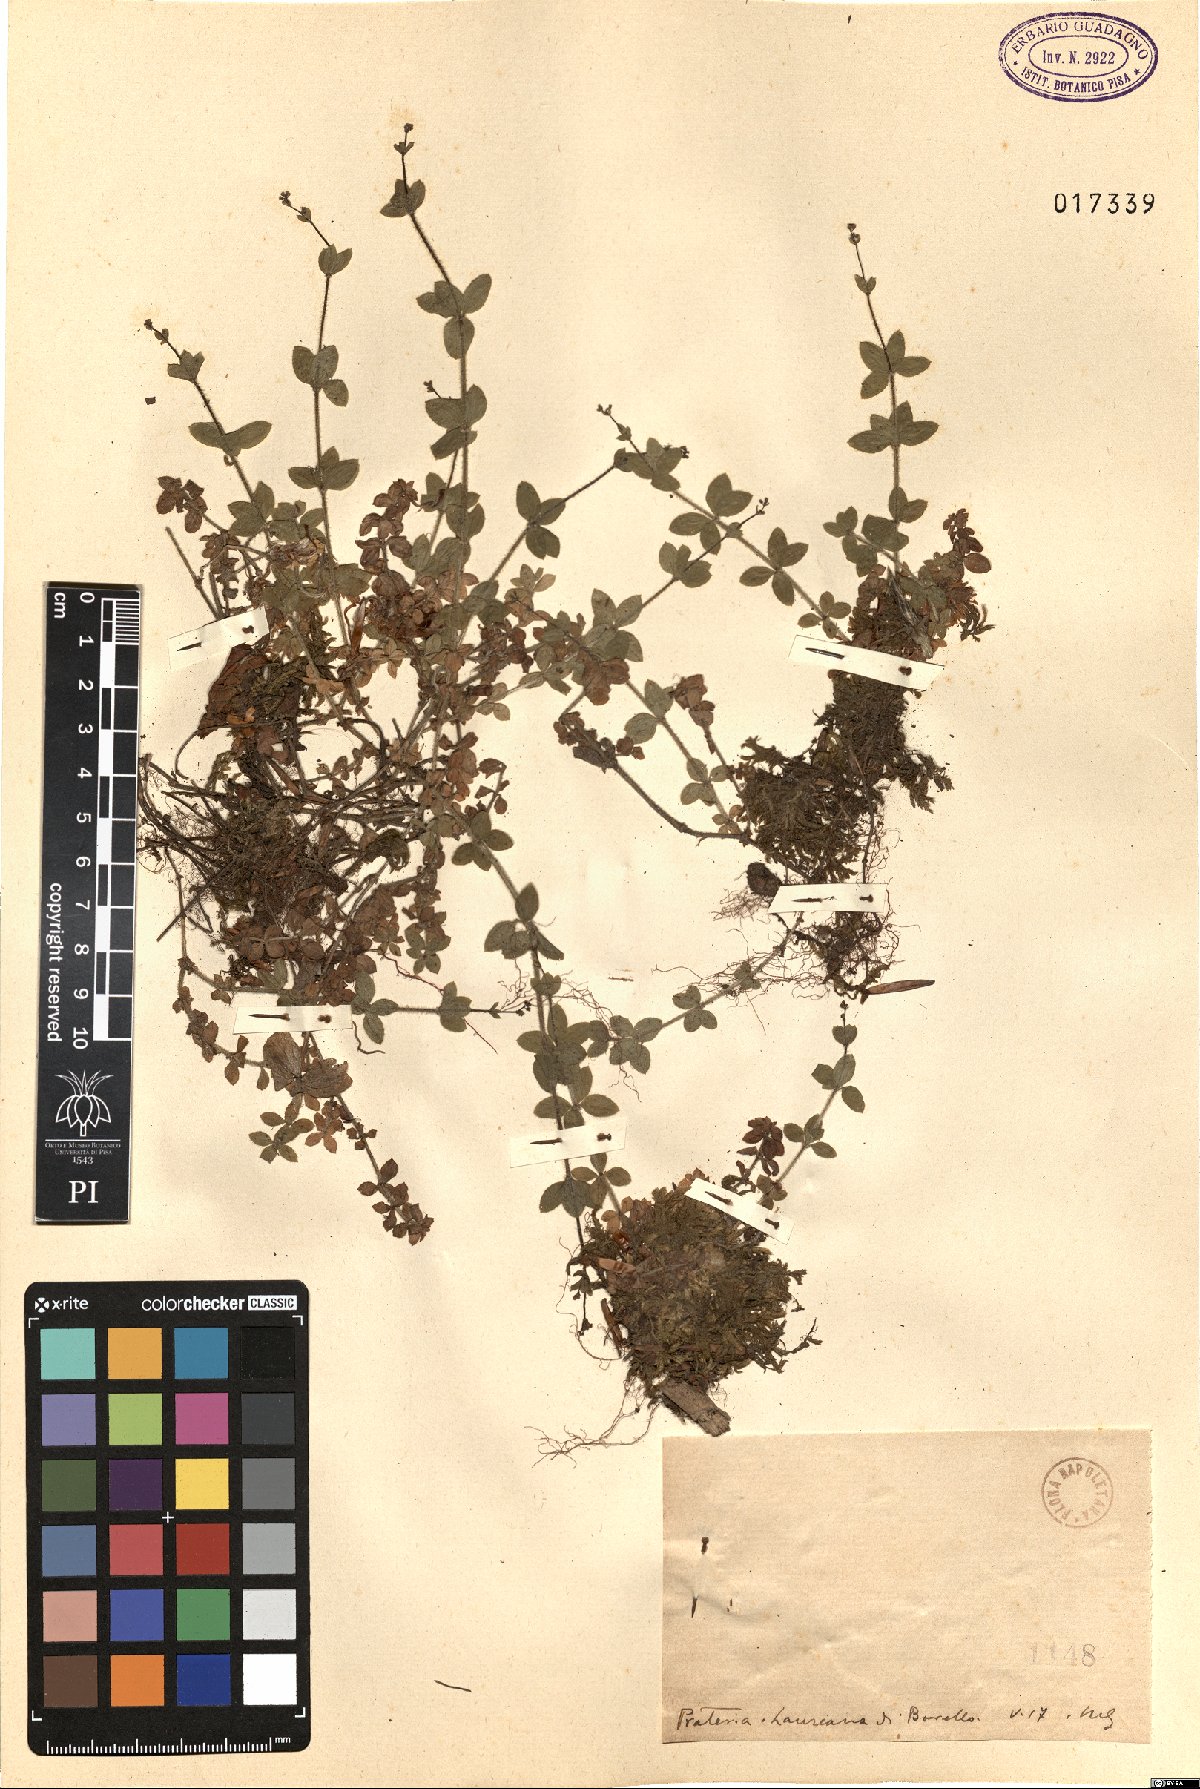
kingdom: Plantae
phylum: Tracheophyta
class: Magnoliopsida
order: Gentianales
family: Rubiaceae
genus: Galium
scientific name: Galium
